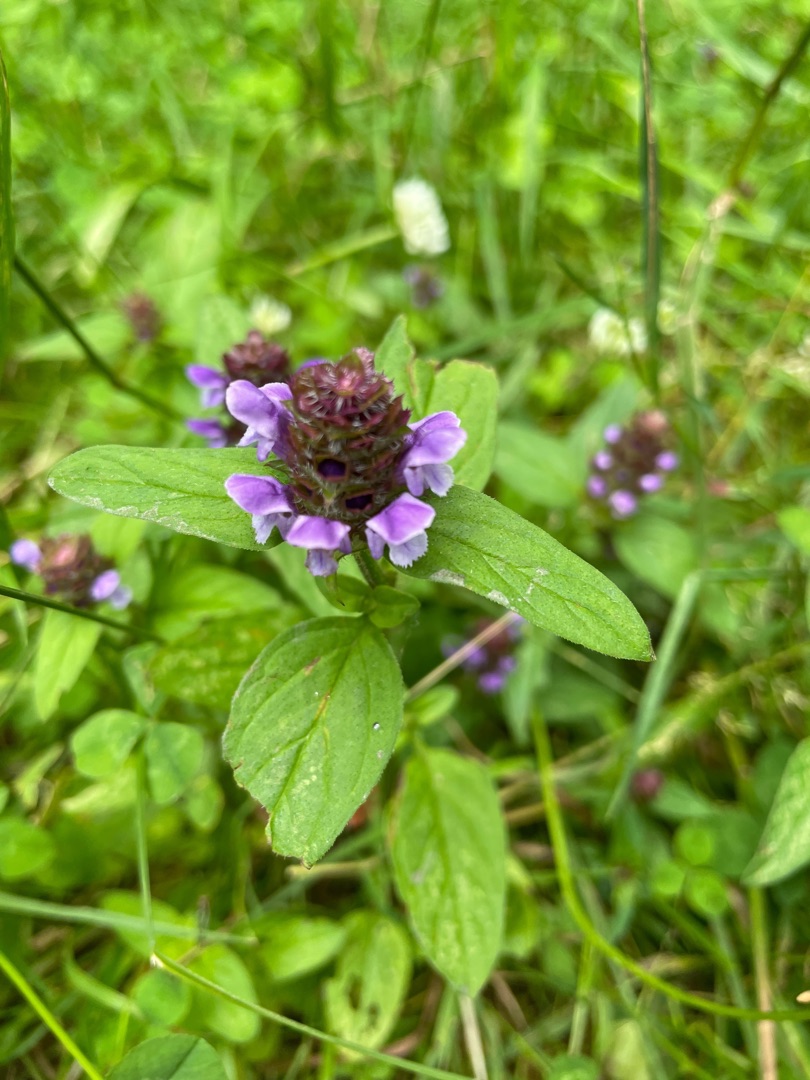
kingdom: Plantae
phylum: Tracheophyta
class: Magnoliopsida
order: Lamiales
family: Lamiaceae
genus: Prunella
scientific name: Prunella vulgaris
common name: Almindelig brunelle
